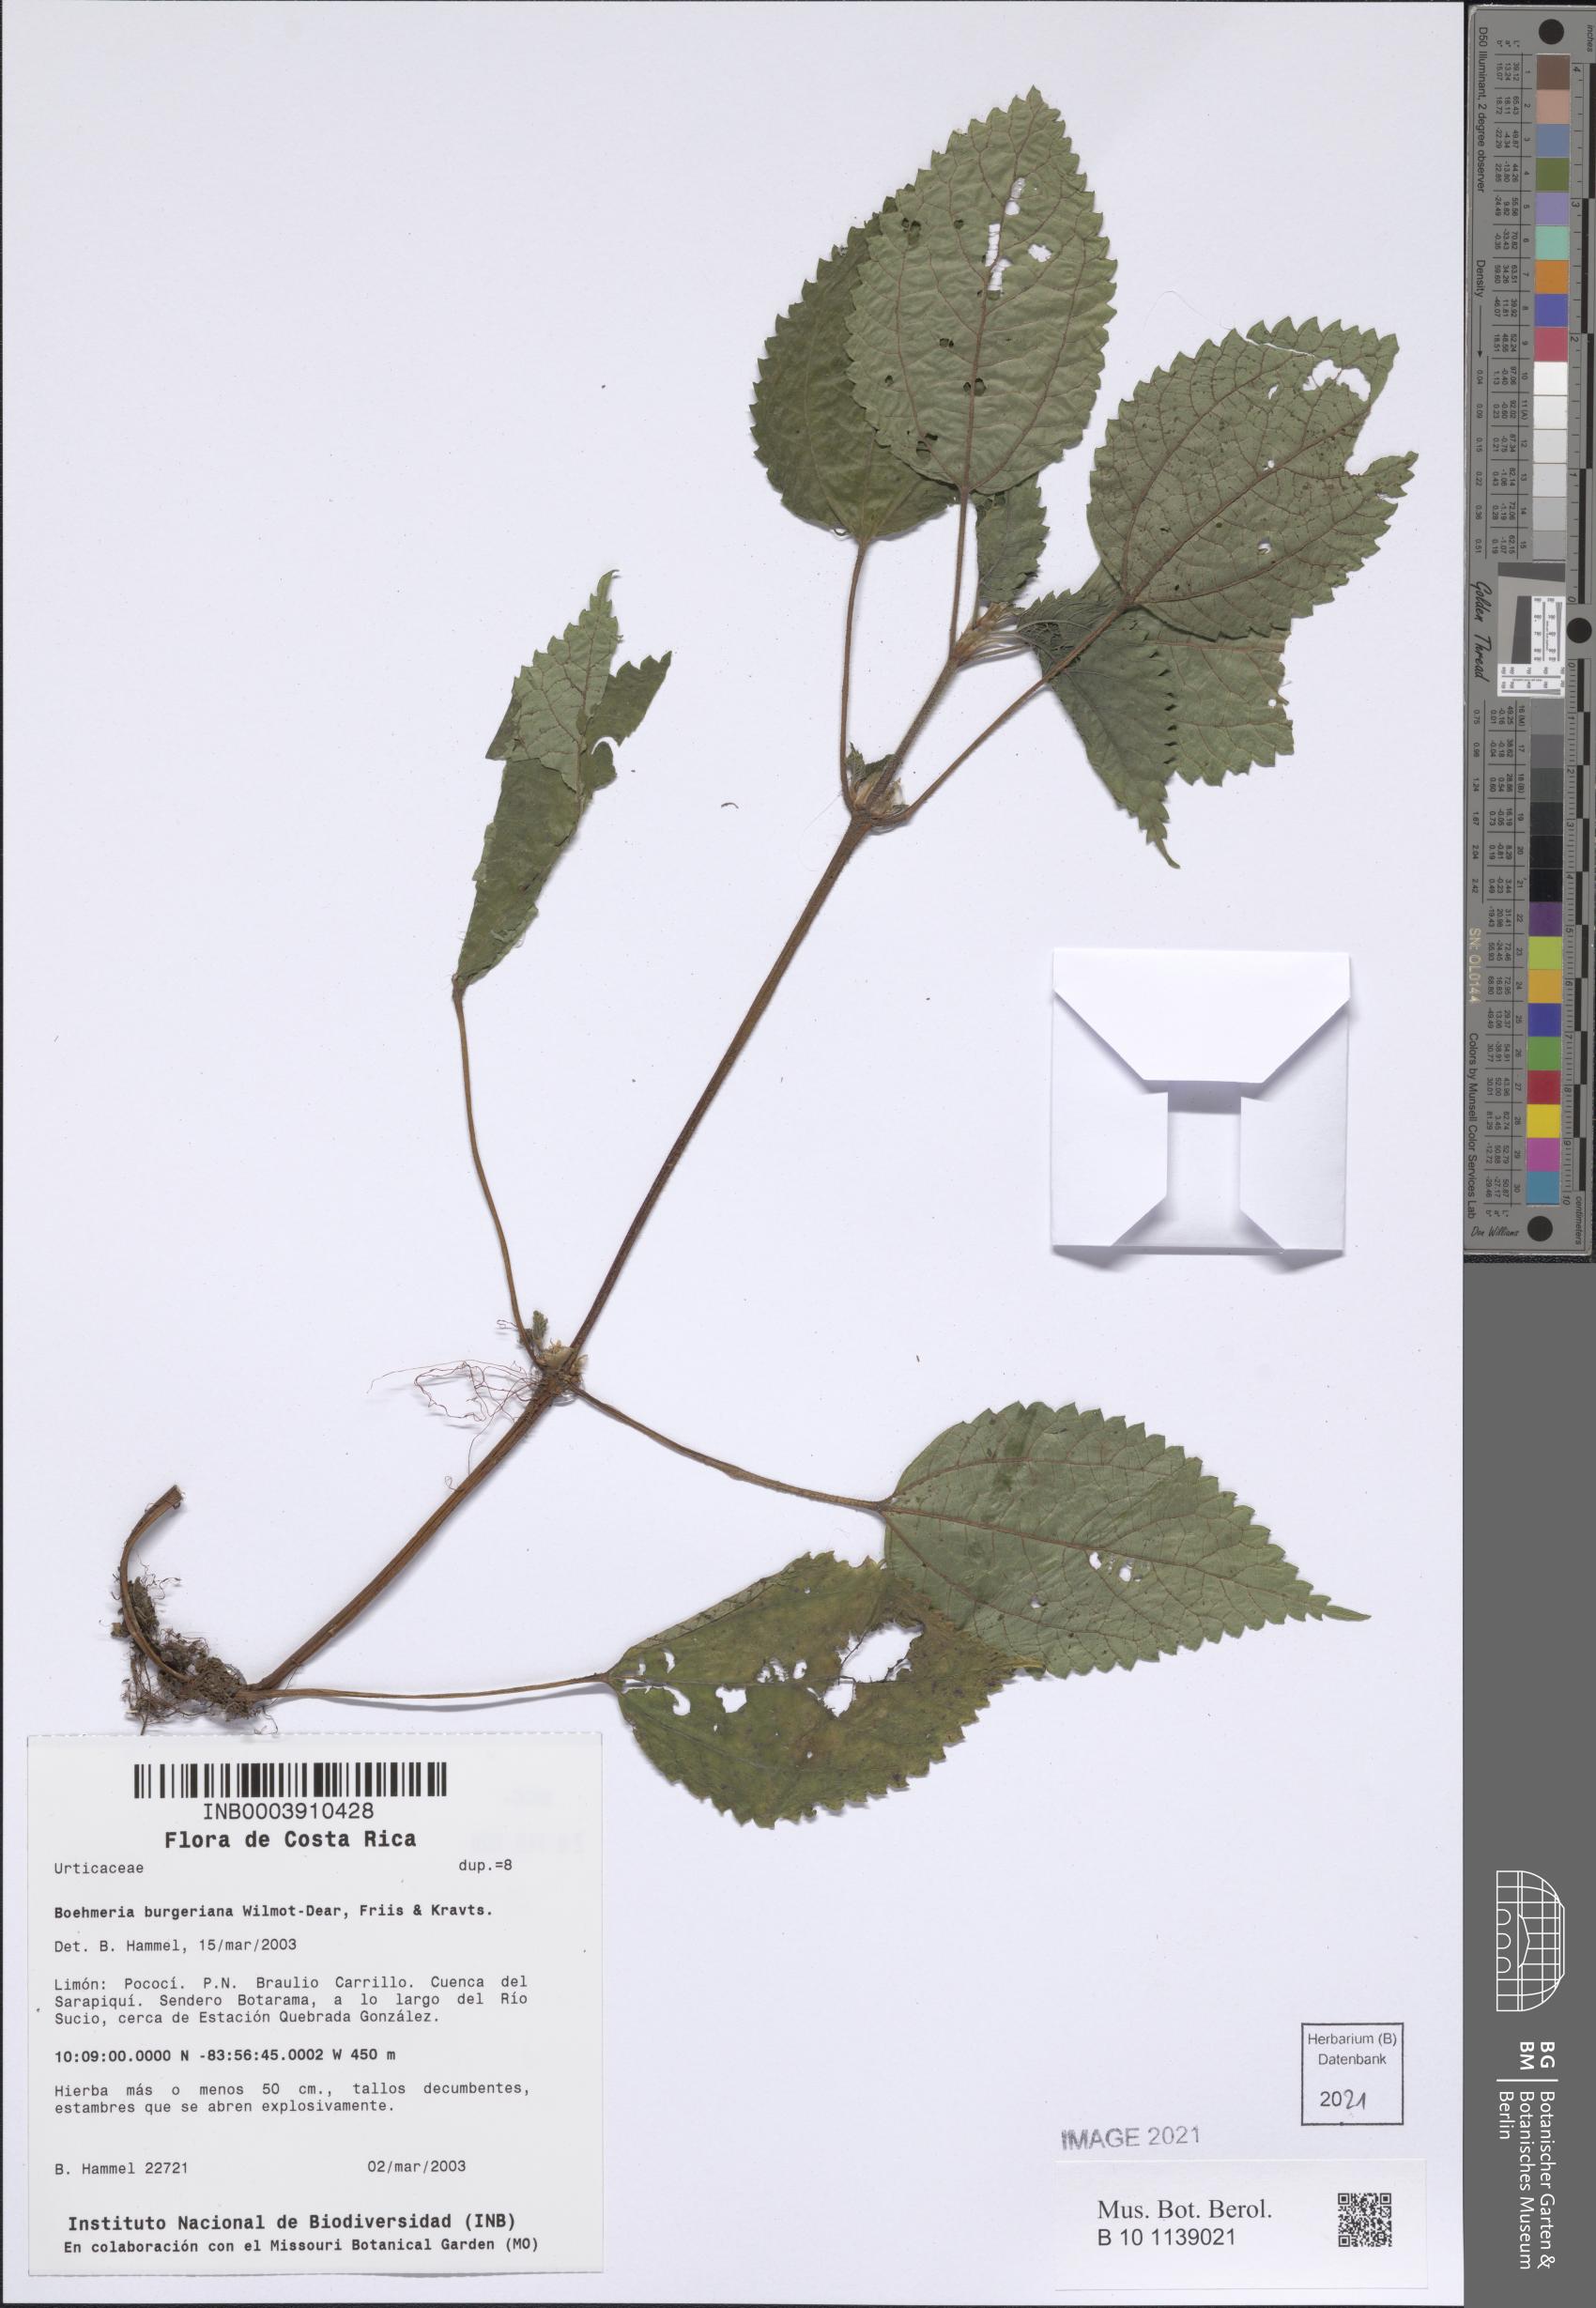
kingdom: Plantae
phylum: Tracheophyta
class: Magnoliopsida
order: Rosales
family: Urticaceae
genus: Boehmeria
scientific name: Boehmeria burgeriana
